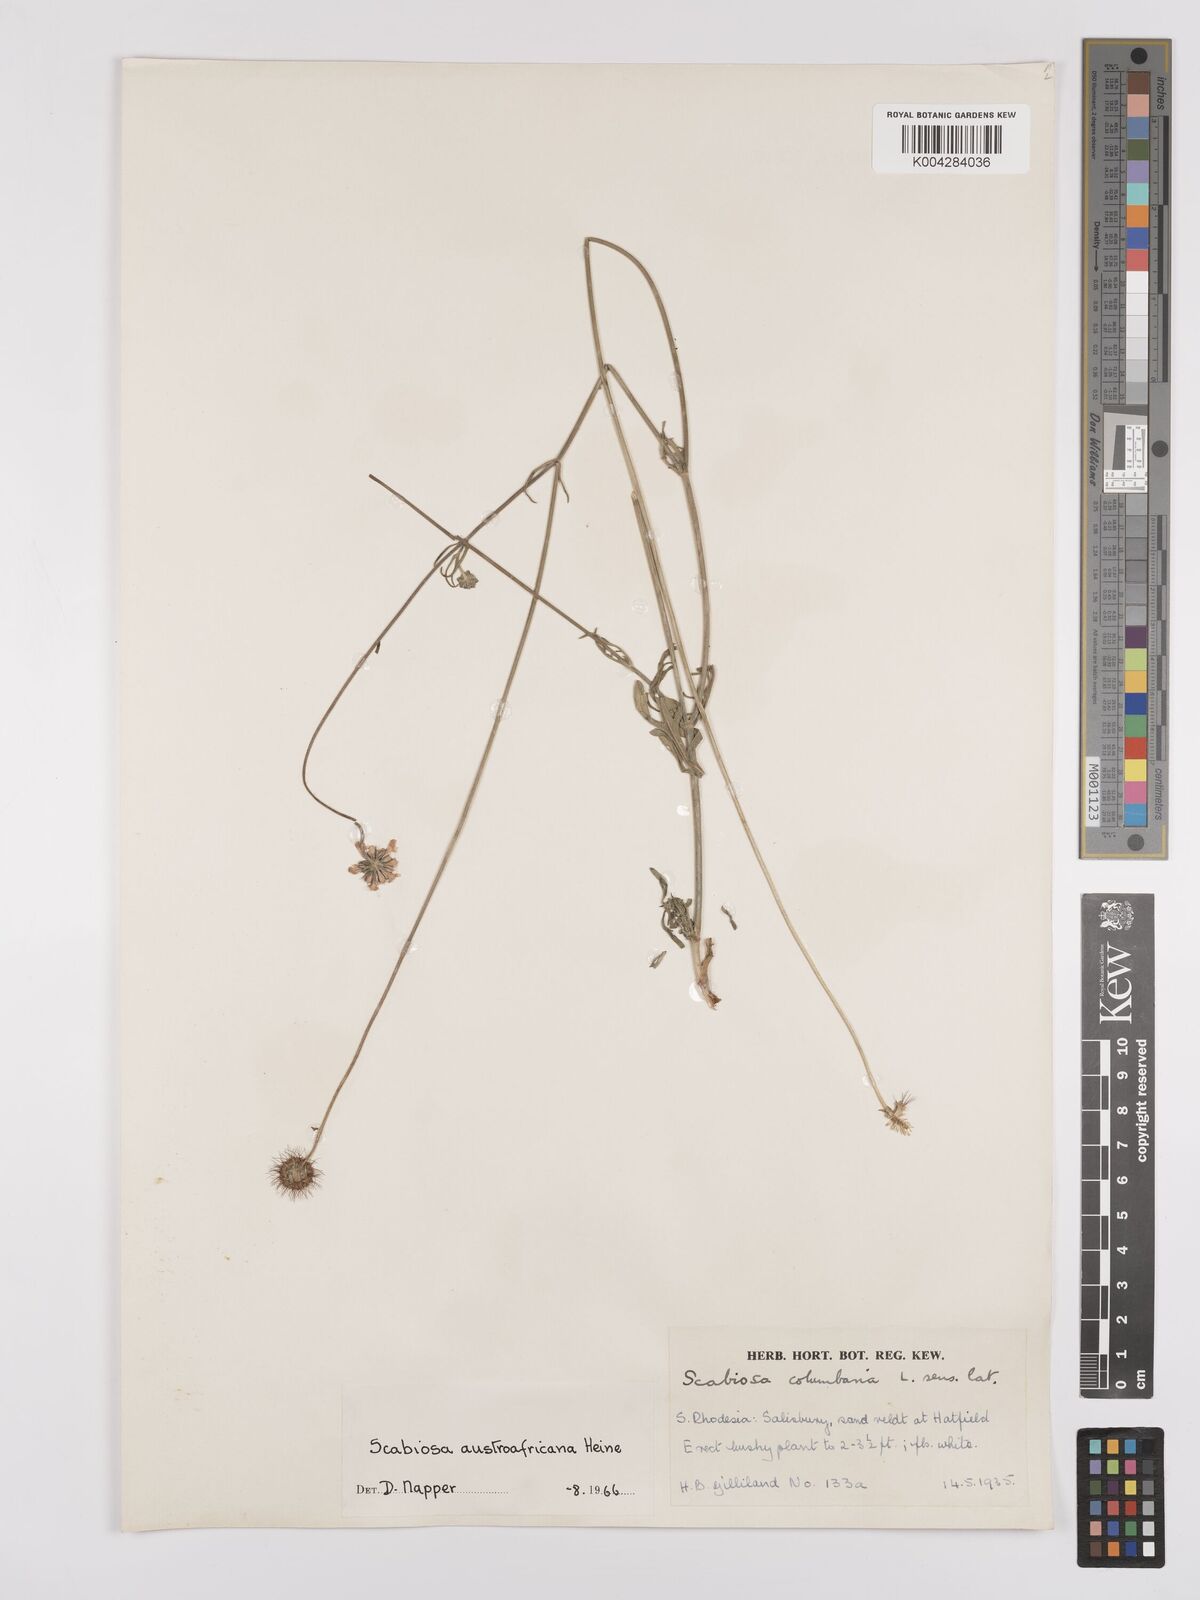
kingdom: Plantae
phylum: Tracheophyta
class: Magnoliopsida
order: Dipsacales
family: Caprifoliaceae
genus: Scabiosa
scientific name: Scabiosa austroafricana
